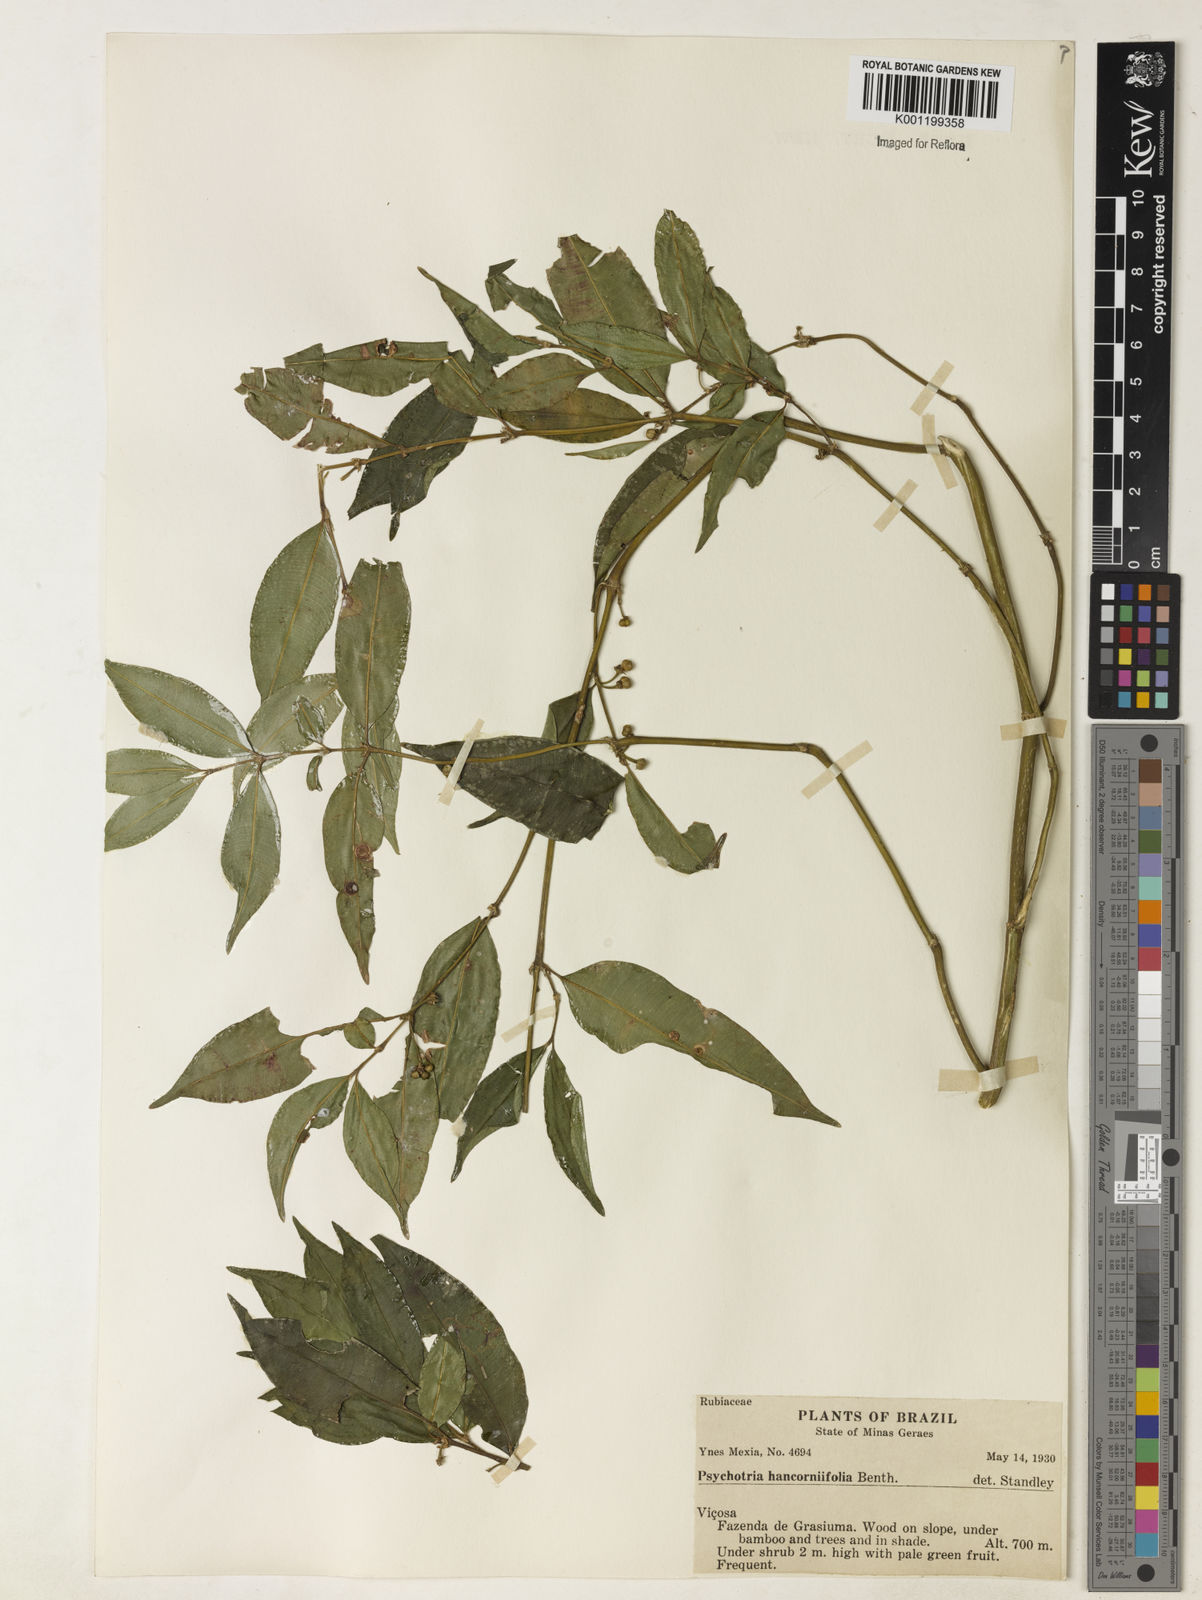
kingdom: Plantae
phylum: Tracheophyta
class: Magnoliopsida
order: Gentianales
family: Rubiaceae
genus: Rudgea
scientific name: Rudgea sessilis
